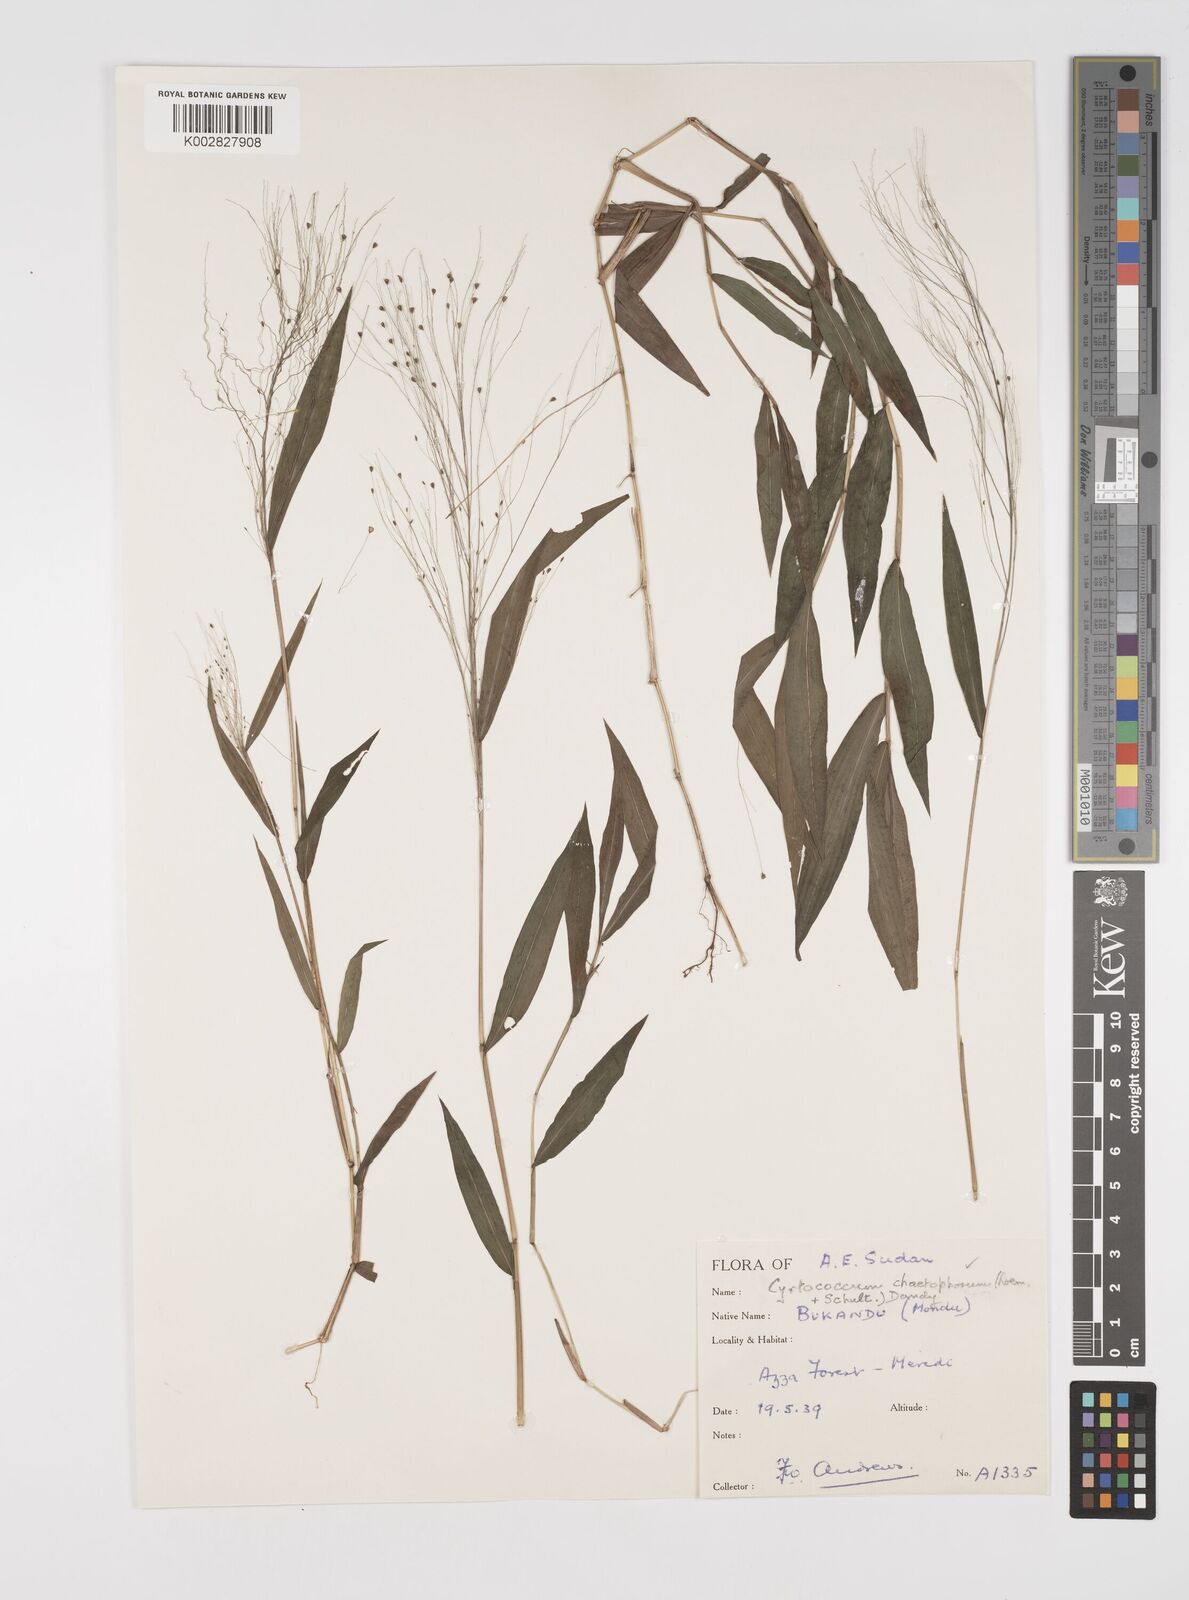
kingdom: Plantae
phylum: Tracheophyta
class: Liliopsida
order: Poales
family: Poaceae
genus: Cyrtococcum
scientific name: Cyrtococcum chaetophoron
